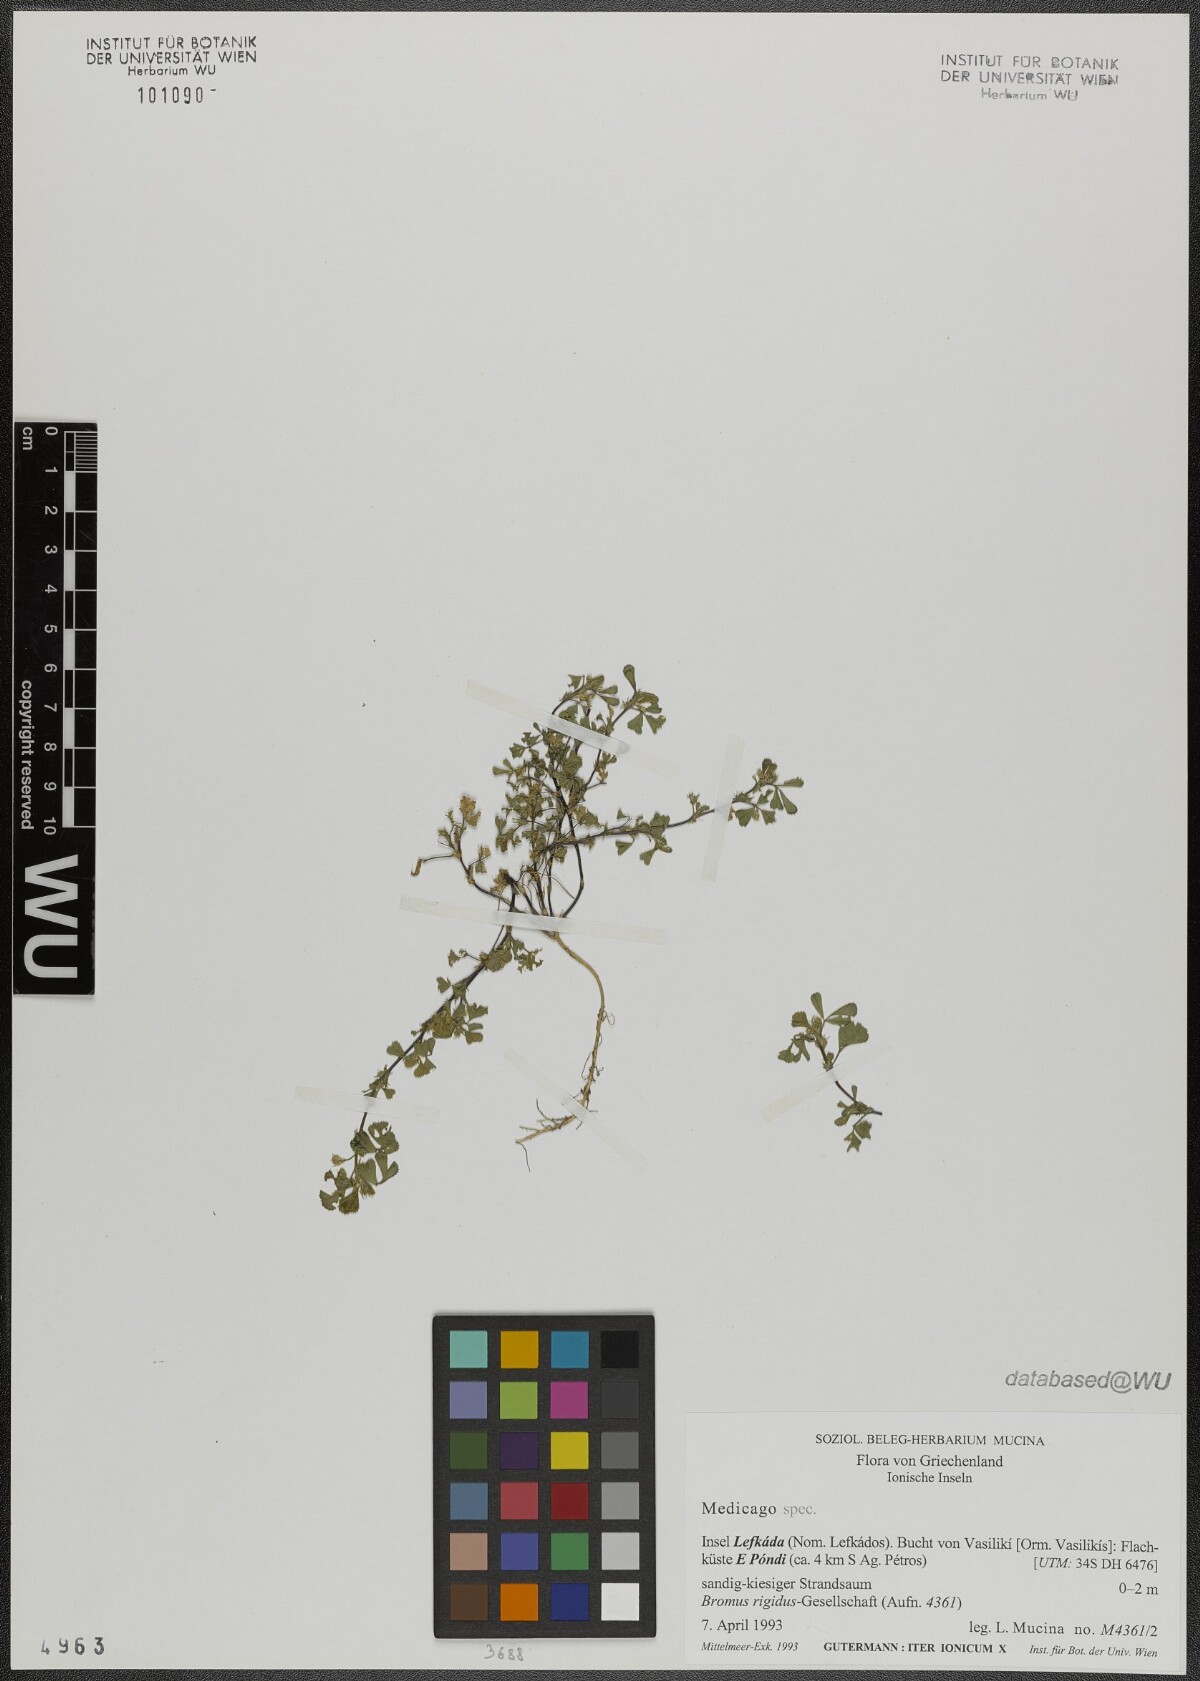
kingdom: Plantae
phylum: Tracheophyta
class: Magnoliopsida
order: Fabales
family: Fabaceae
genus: Medicago
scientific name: Medicago
